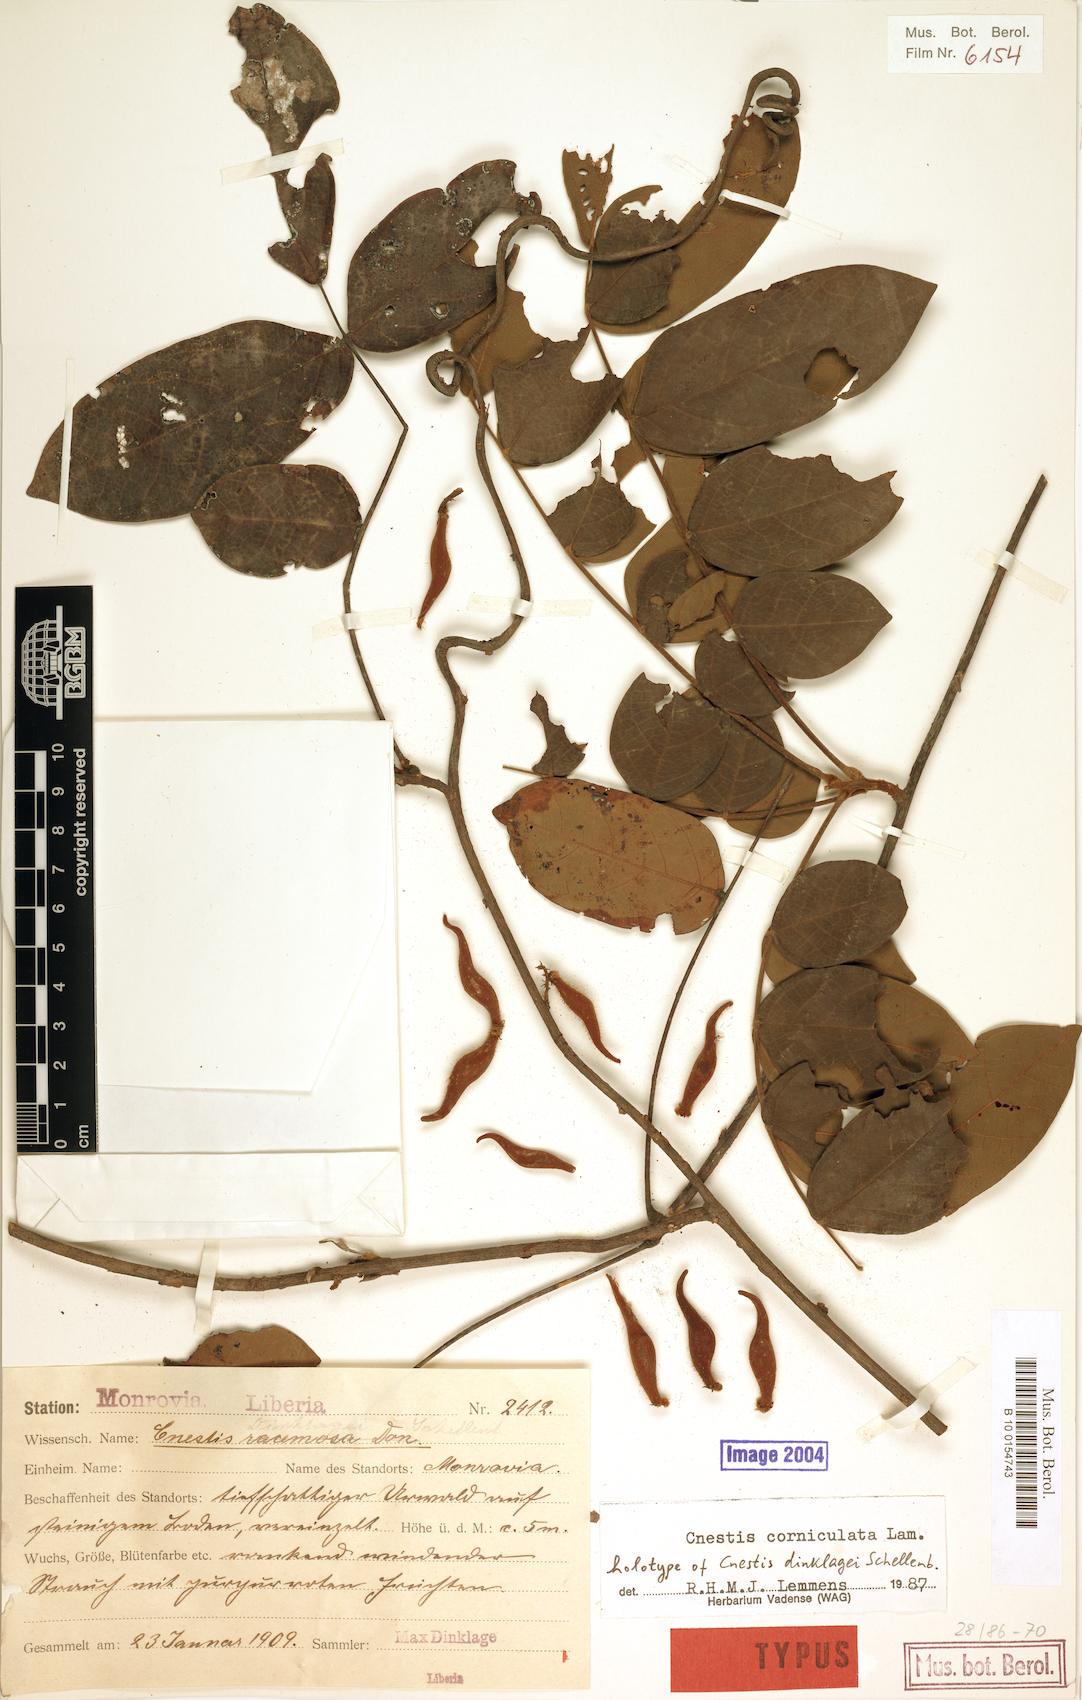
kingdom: Plantae
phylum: Tracheophyta
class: Magnoliopsida
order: Oxalidales
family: Connaraceae
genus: Cnestis
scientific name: Cnestis corniculata
